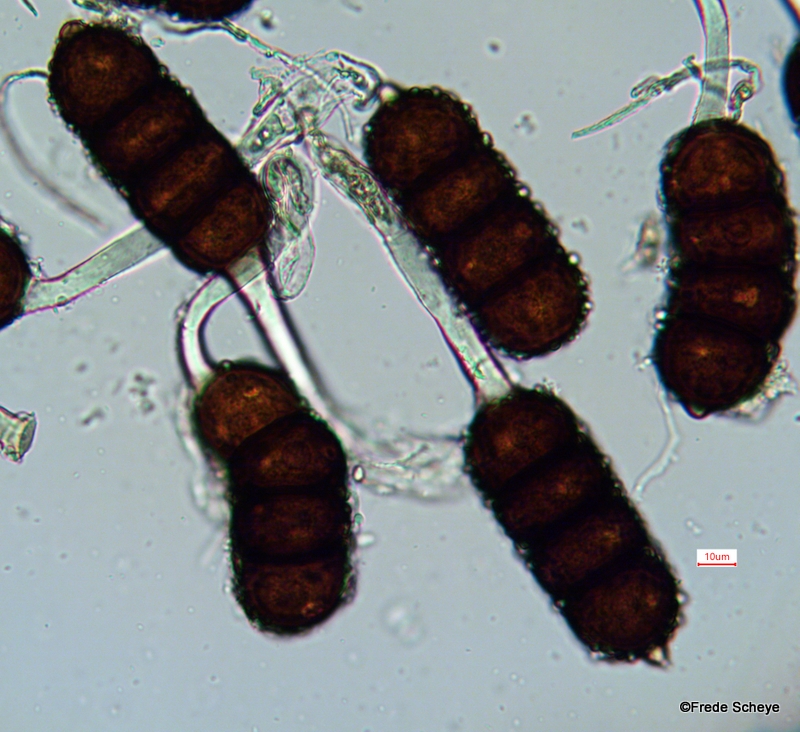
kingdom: Fungi
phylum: Basidiomycota
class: Pucciniomycetes
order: Pucciniales
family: Phragmidiaceae
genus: Phragmidium
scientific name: Phragmidium violaceum
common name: violet flercellerust
